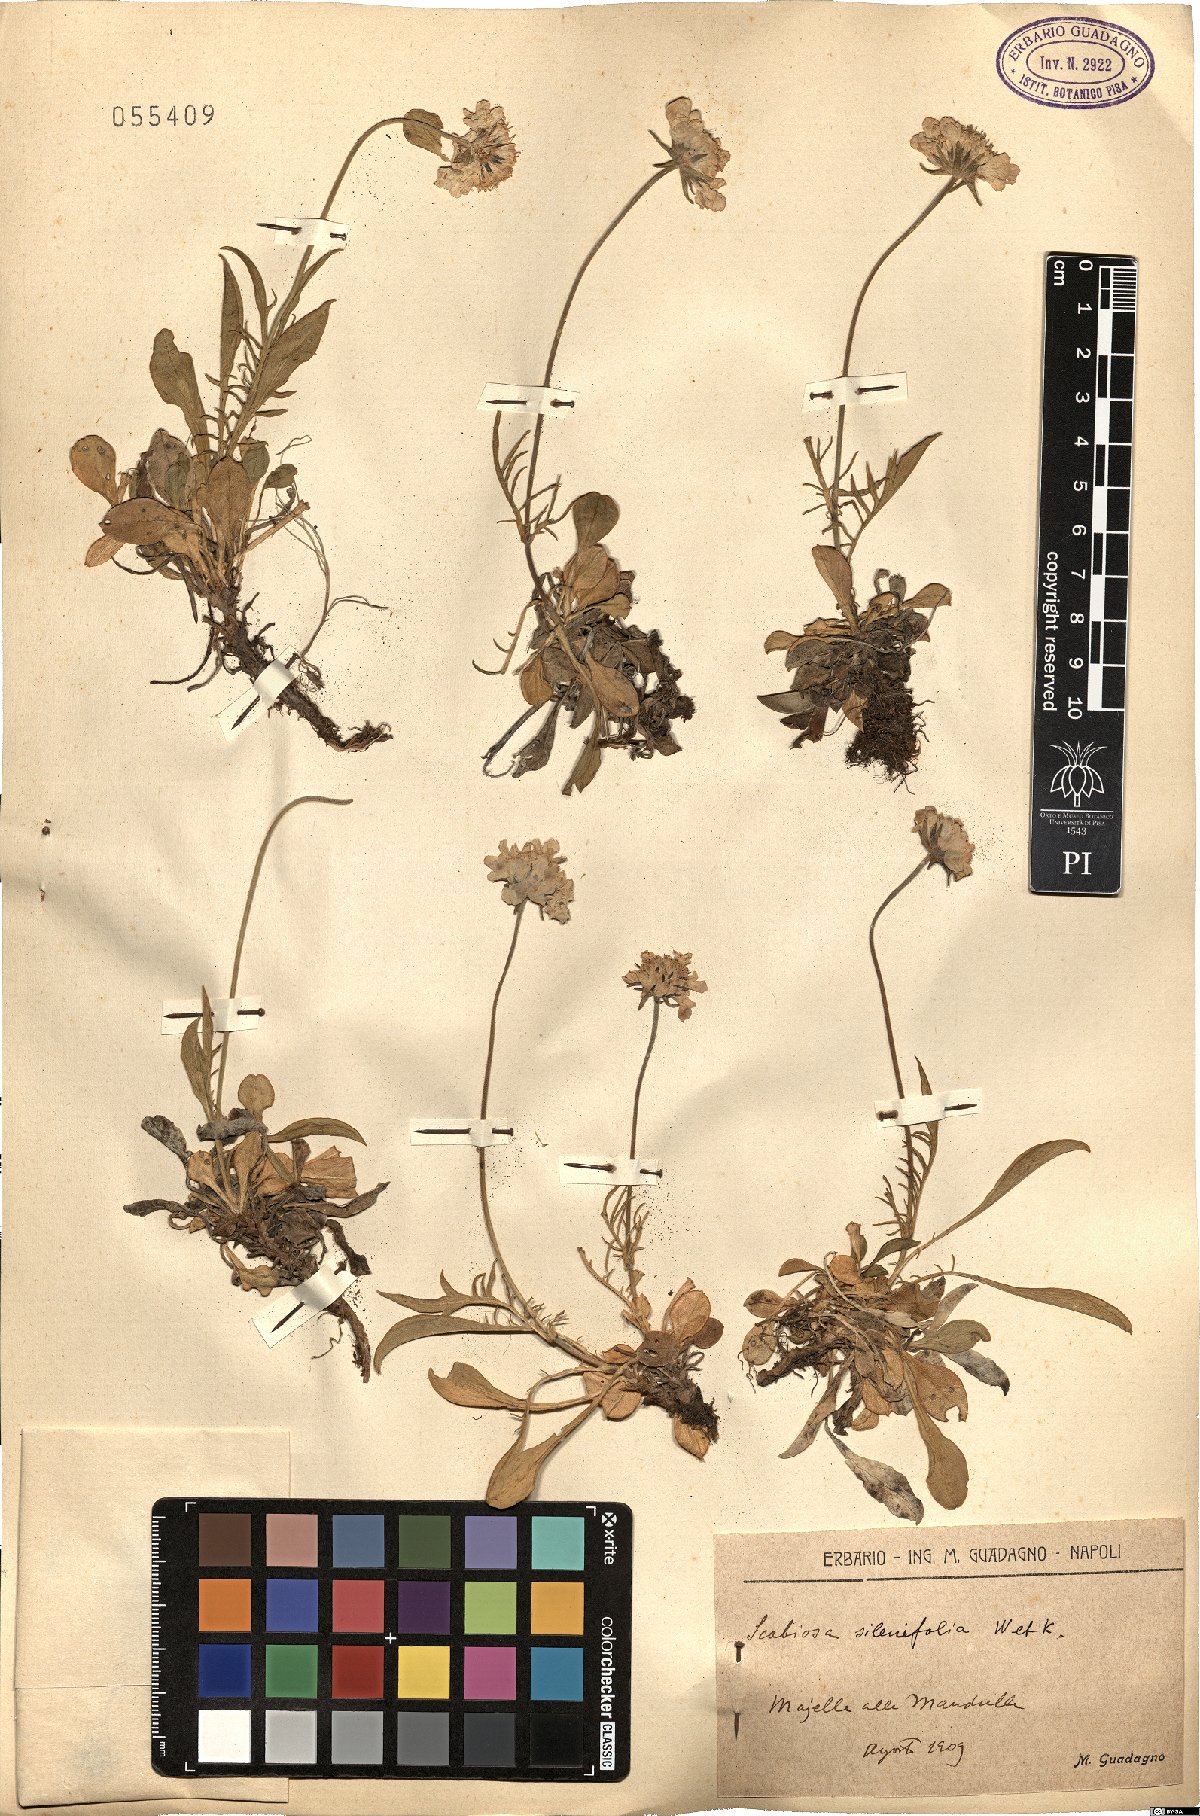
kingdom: Plantae
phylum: Tracheophyta
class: Magnoliopsida
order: Dipsacales
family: Caprifoliaceae
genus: Scabiosa
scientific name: Scabiosa silenifolia
